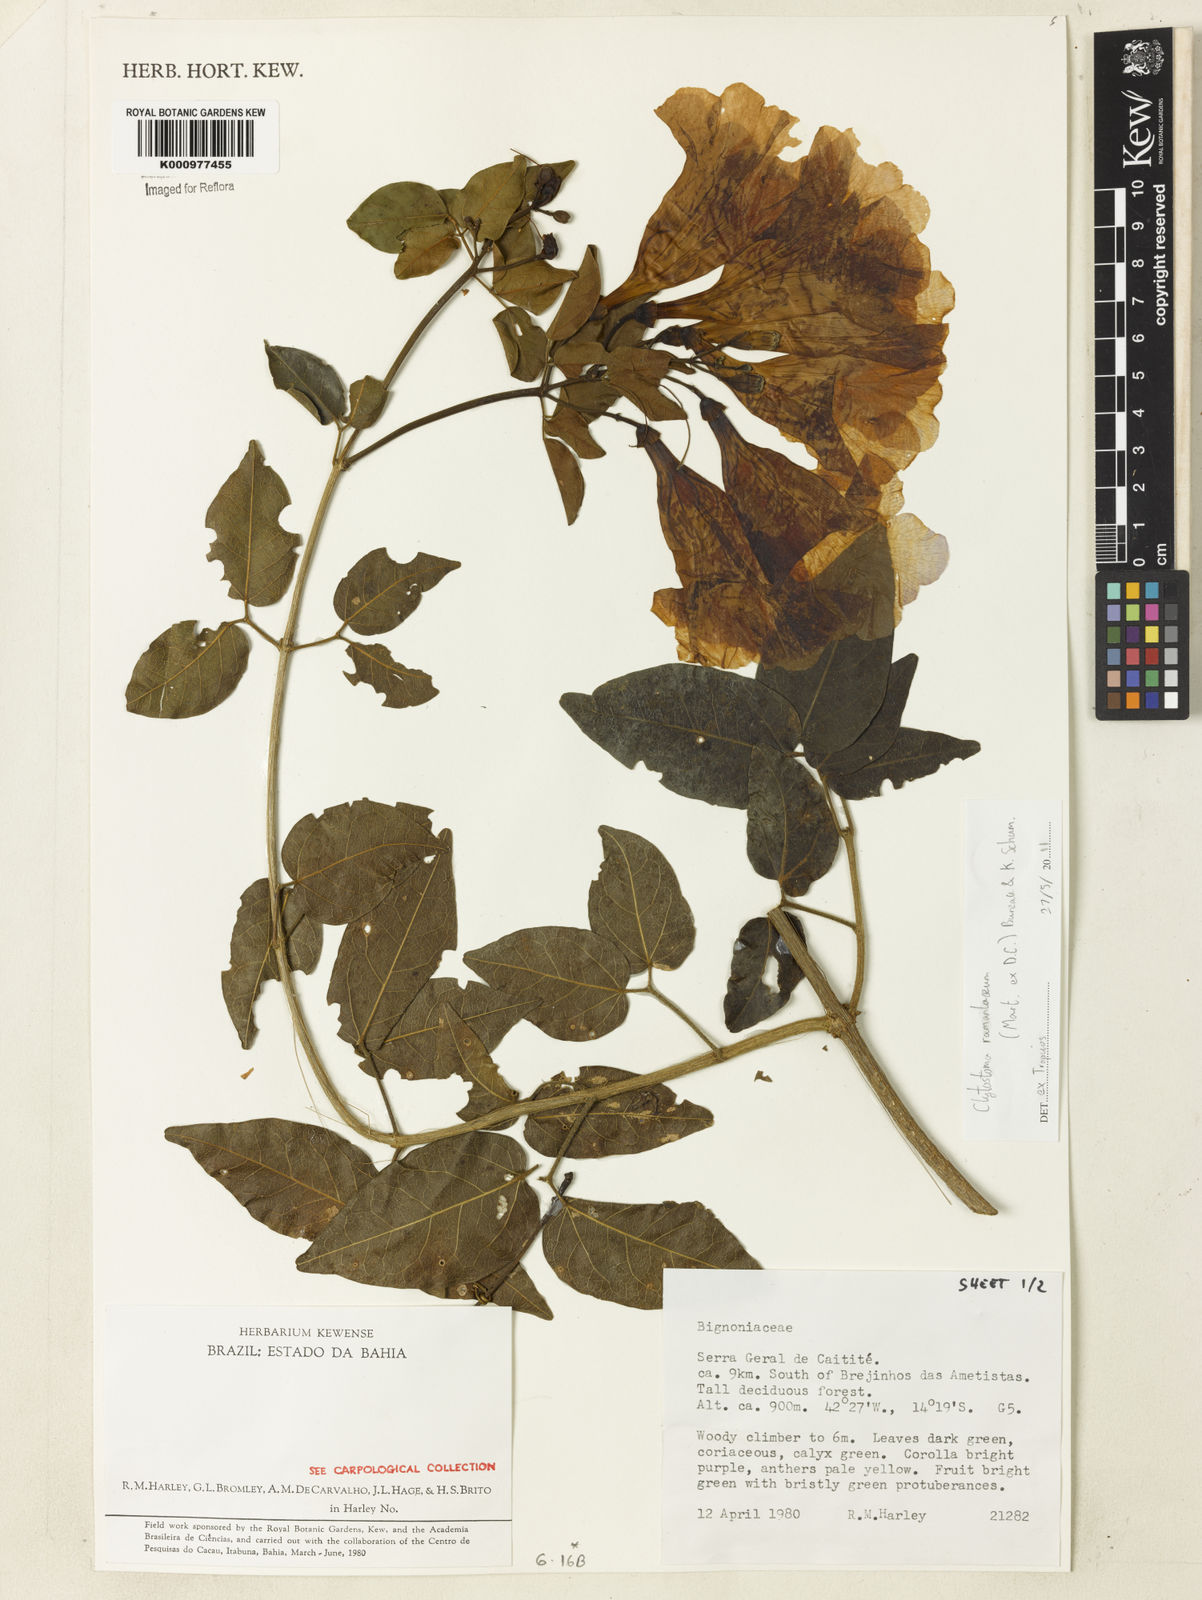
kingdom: Plantae
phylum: Tracheophyta
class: Magnoliopsida
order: Lamiales
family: Bignoniaceae
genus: Bignonia
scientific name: Bignonia ramentacea
